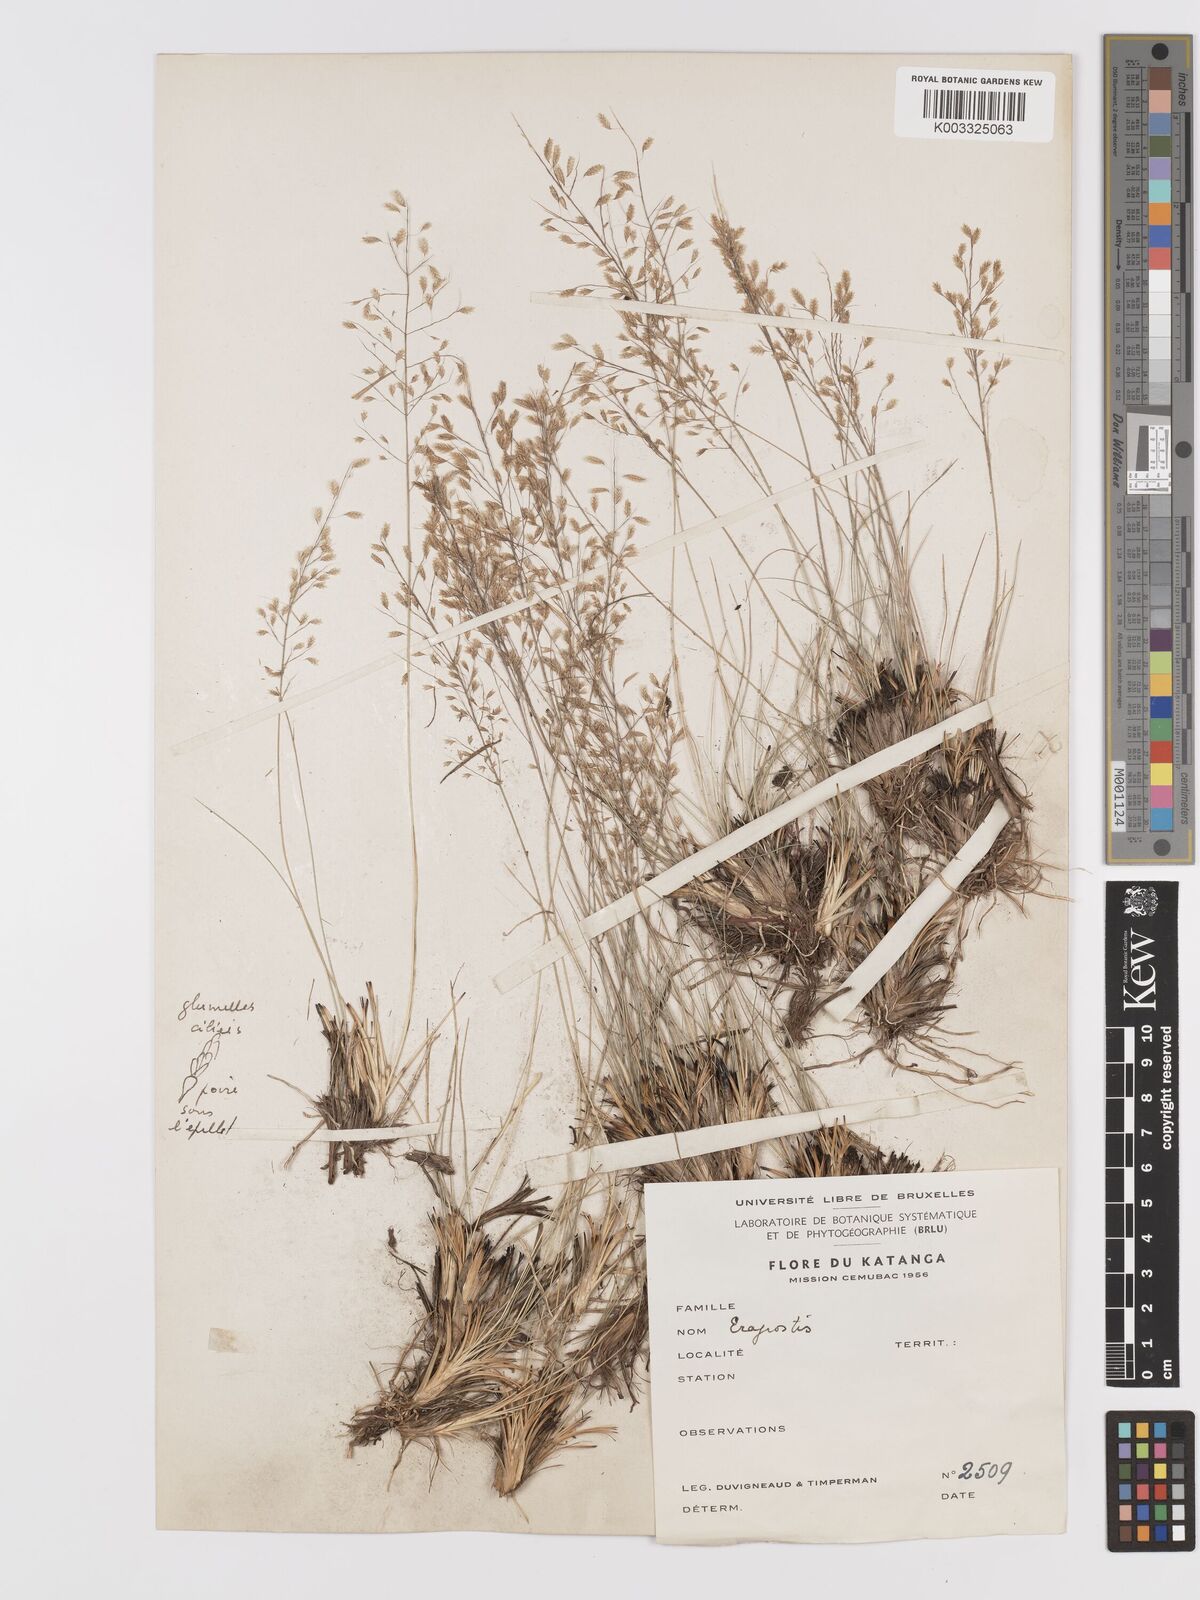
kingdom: Plantae
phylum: Tracheophyta
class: Liliopsida
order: Poales
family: Poaceae
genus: Eragrostis
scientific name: Eragrostis
